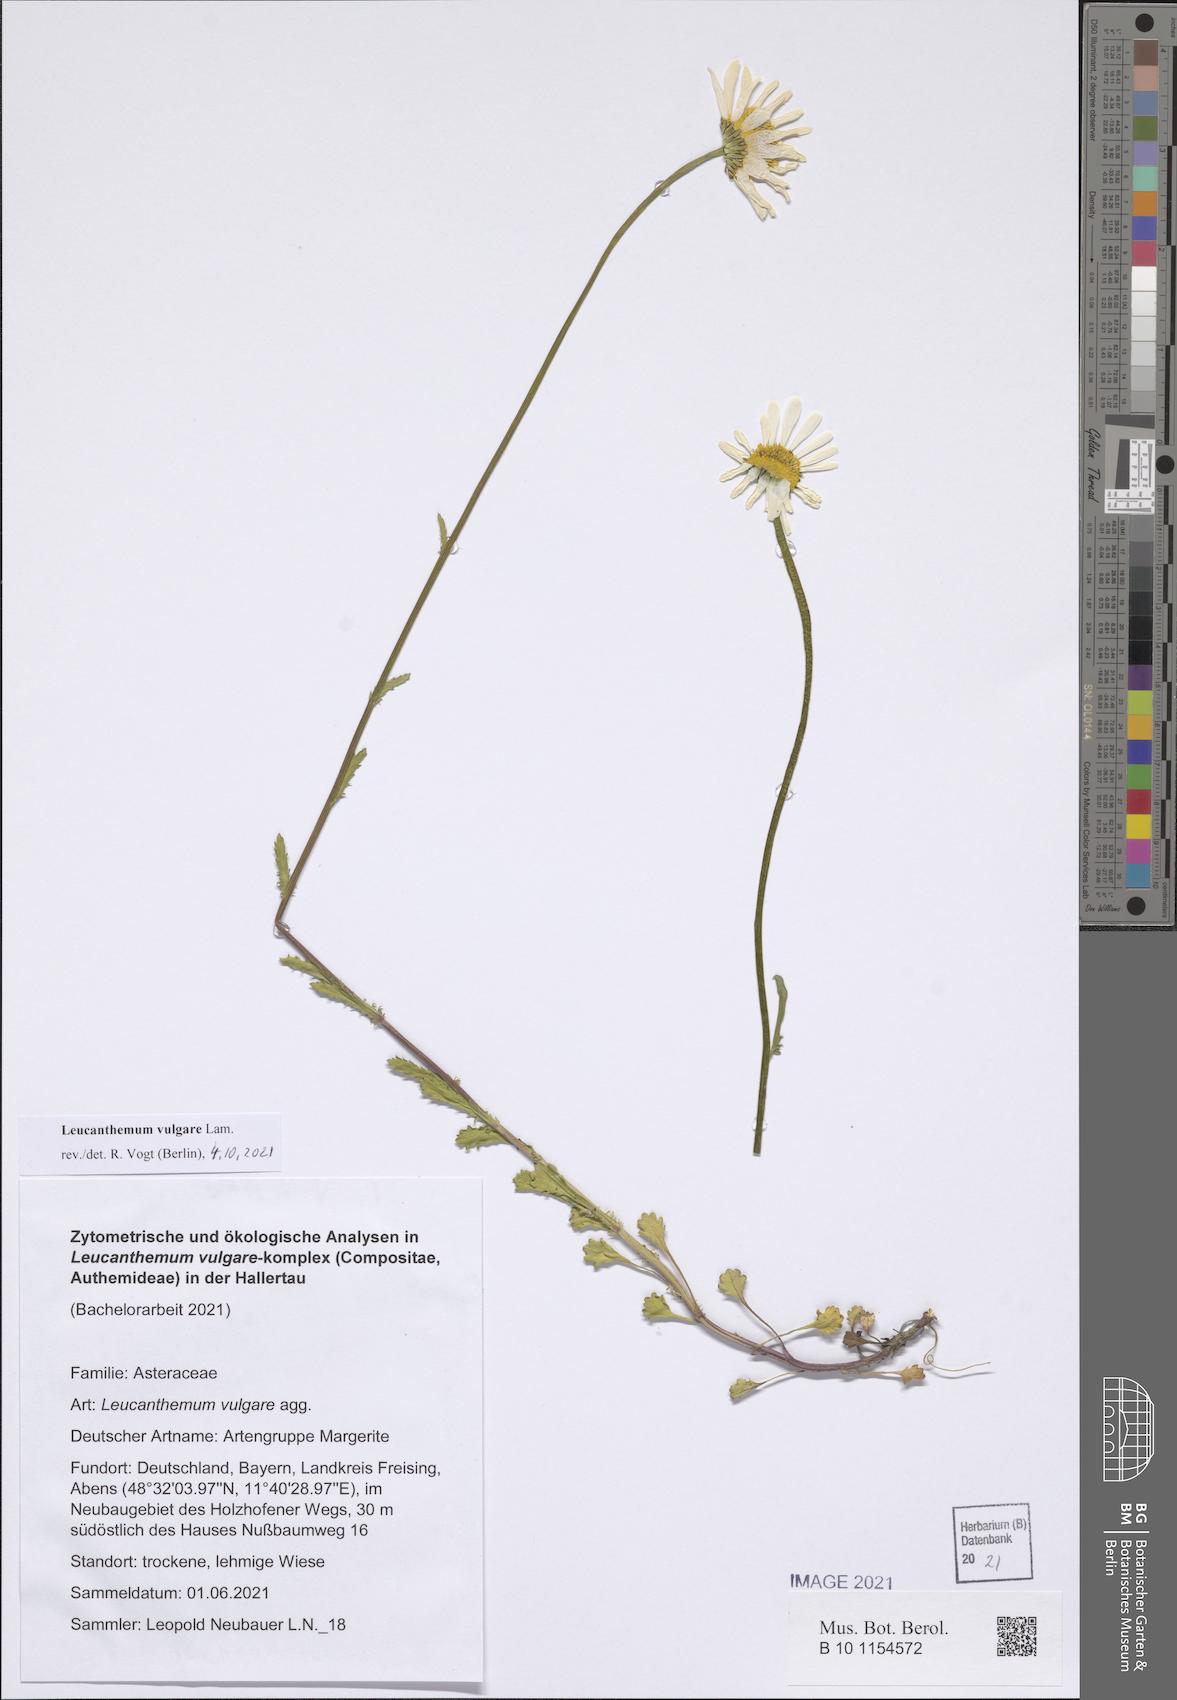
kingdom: Plantae
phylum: Tracheophyta
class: Magnoliopsida
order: Asterales
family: Asteraceae
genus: Leucanthemum
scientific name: Leucanthemum vulgare
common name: Oxeye daisy
